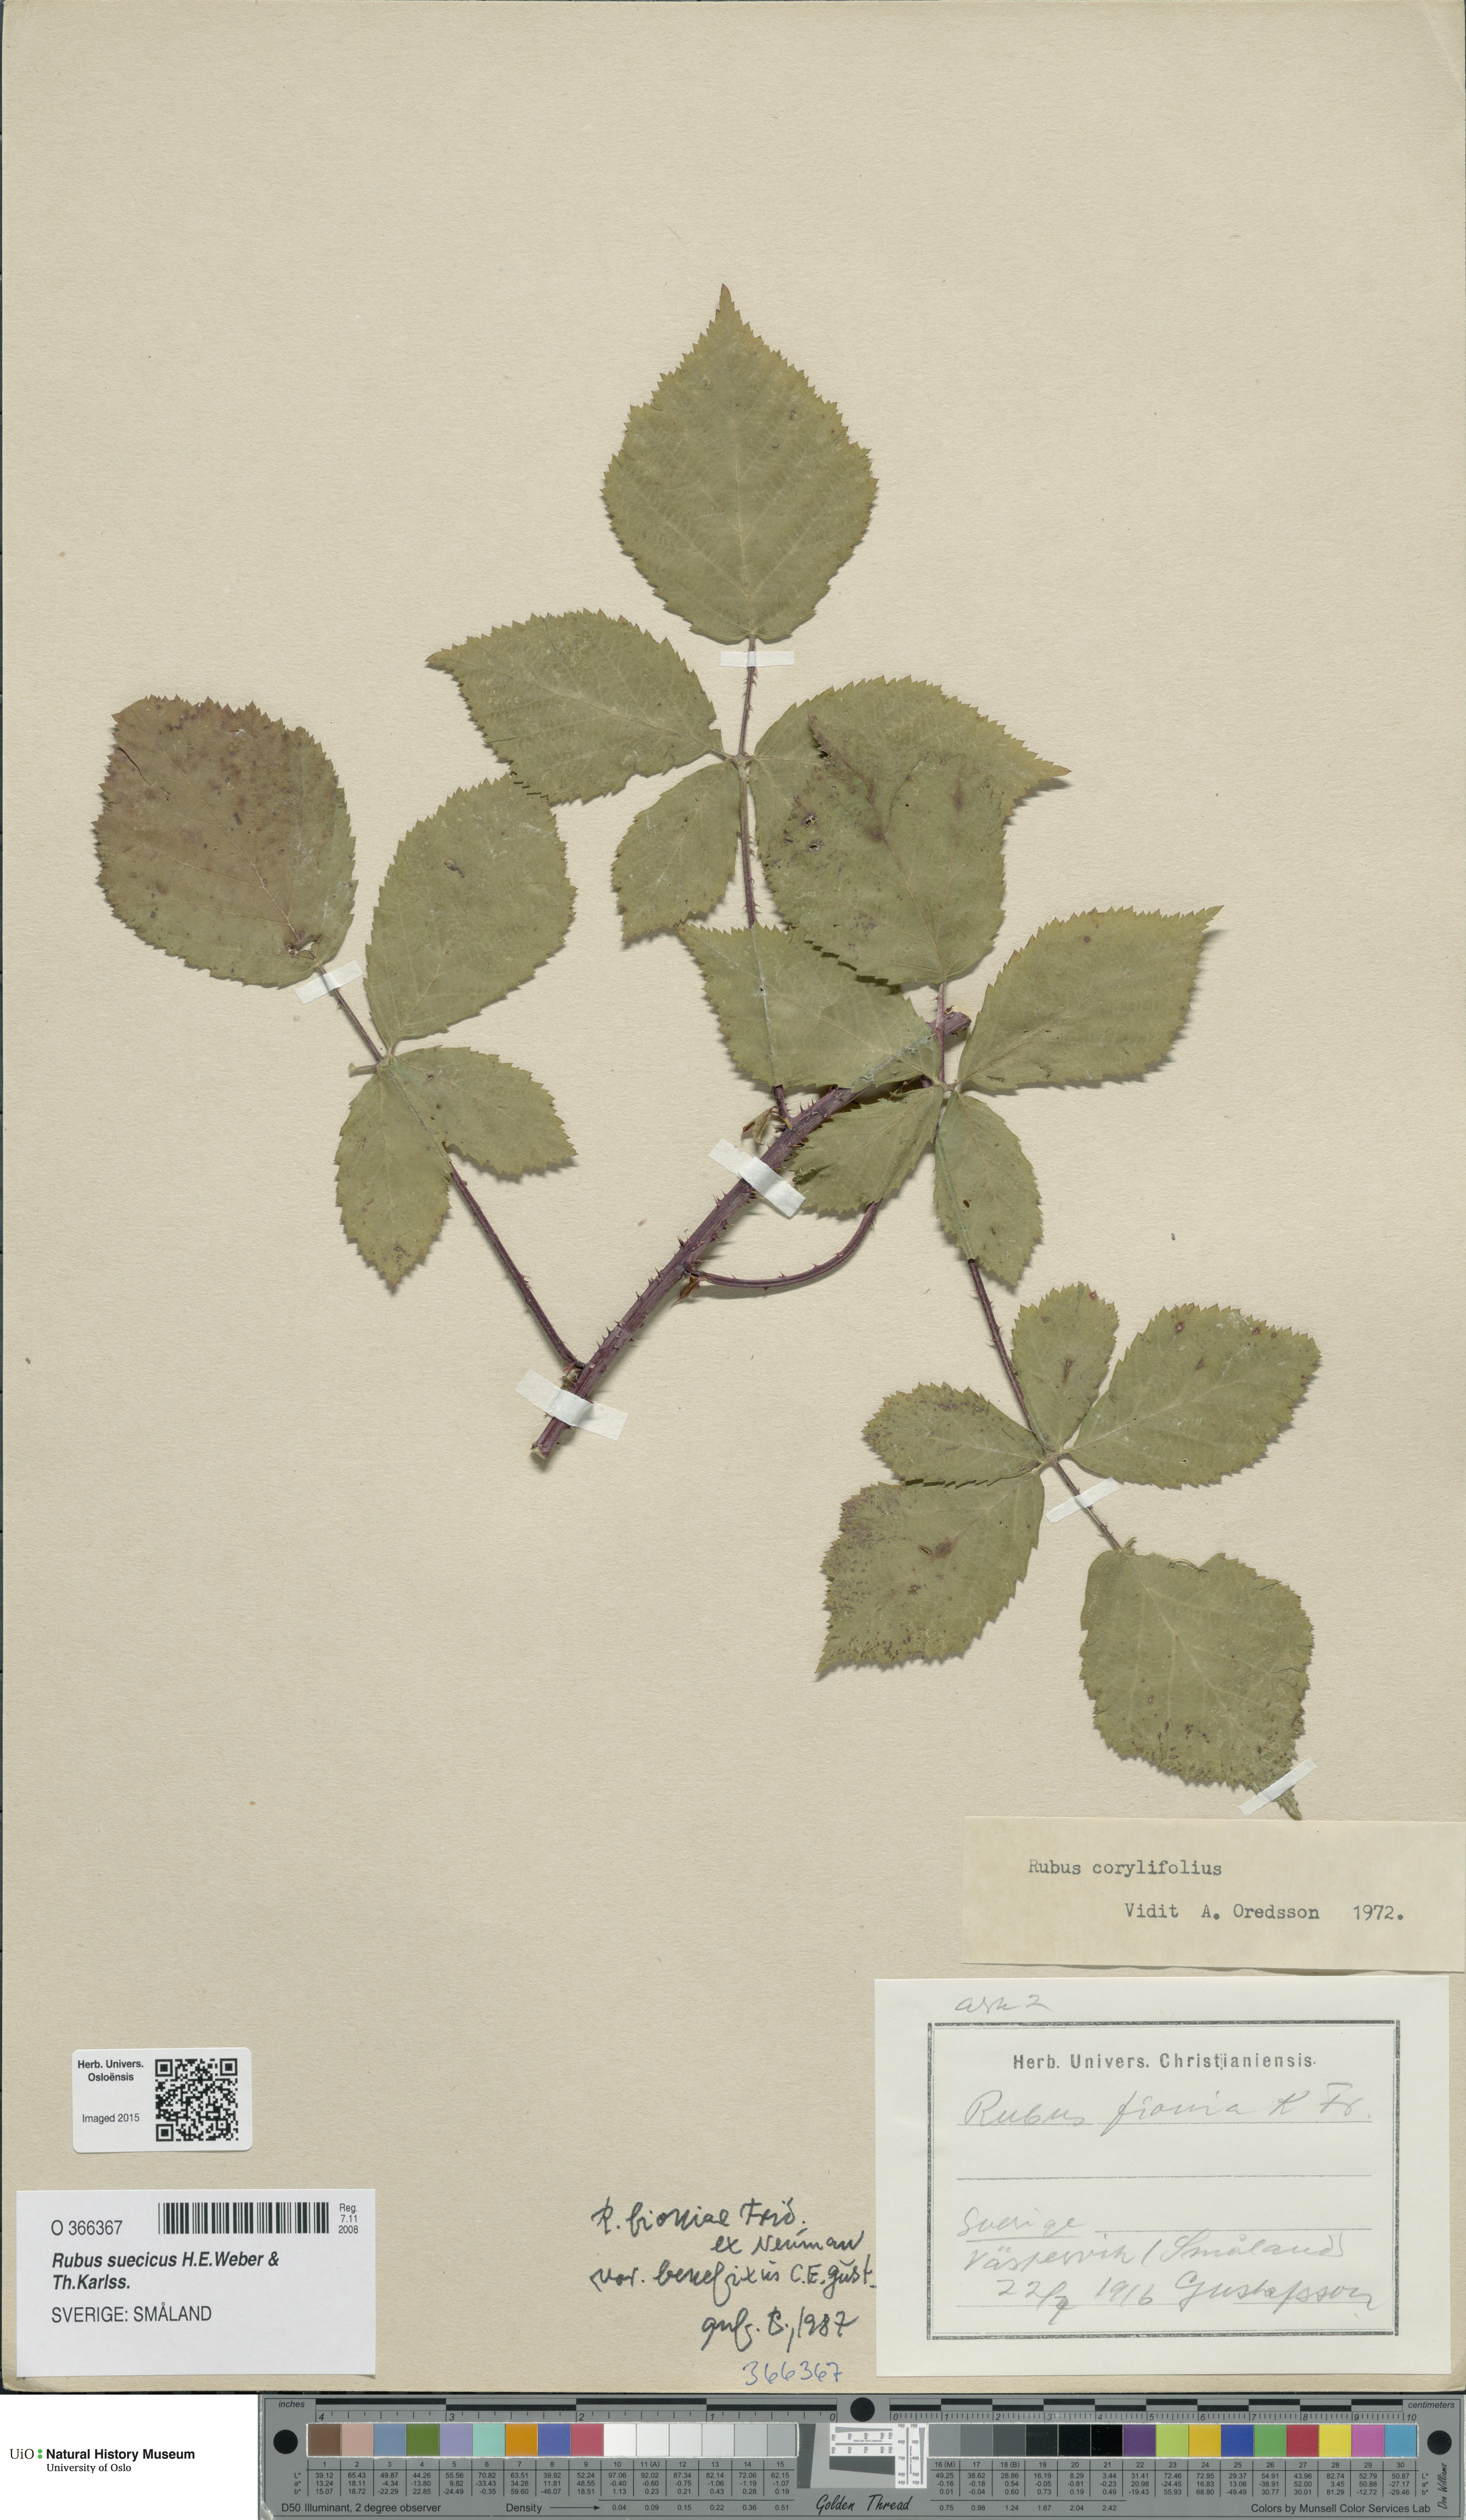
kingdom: Plantae
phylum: Tracheophyta
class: Magnoliopsida
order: Rosales
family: Rosaceae
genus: Rubus
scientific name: Rubus suecicus
